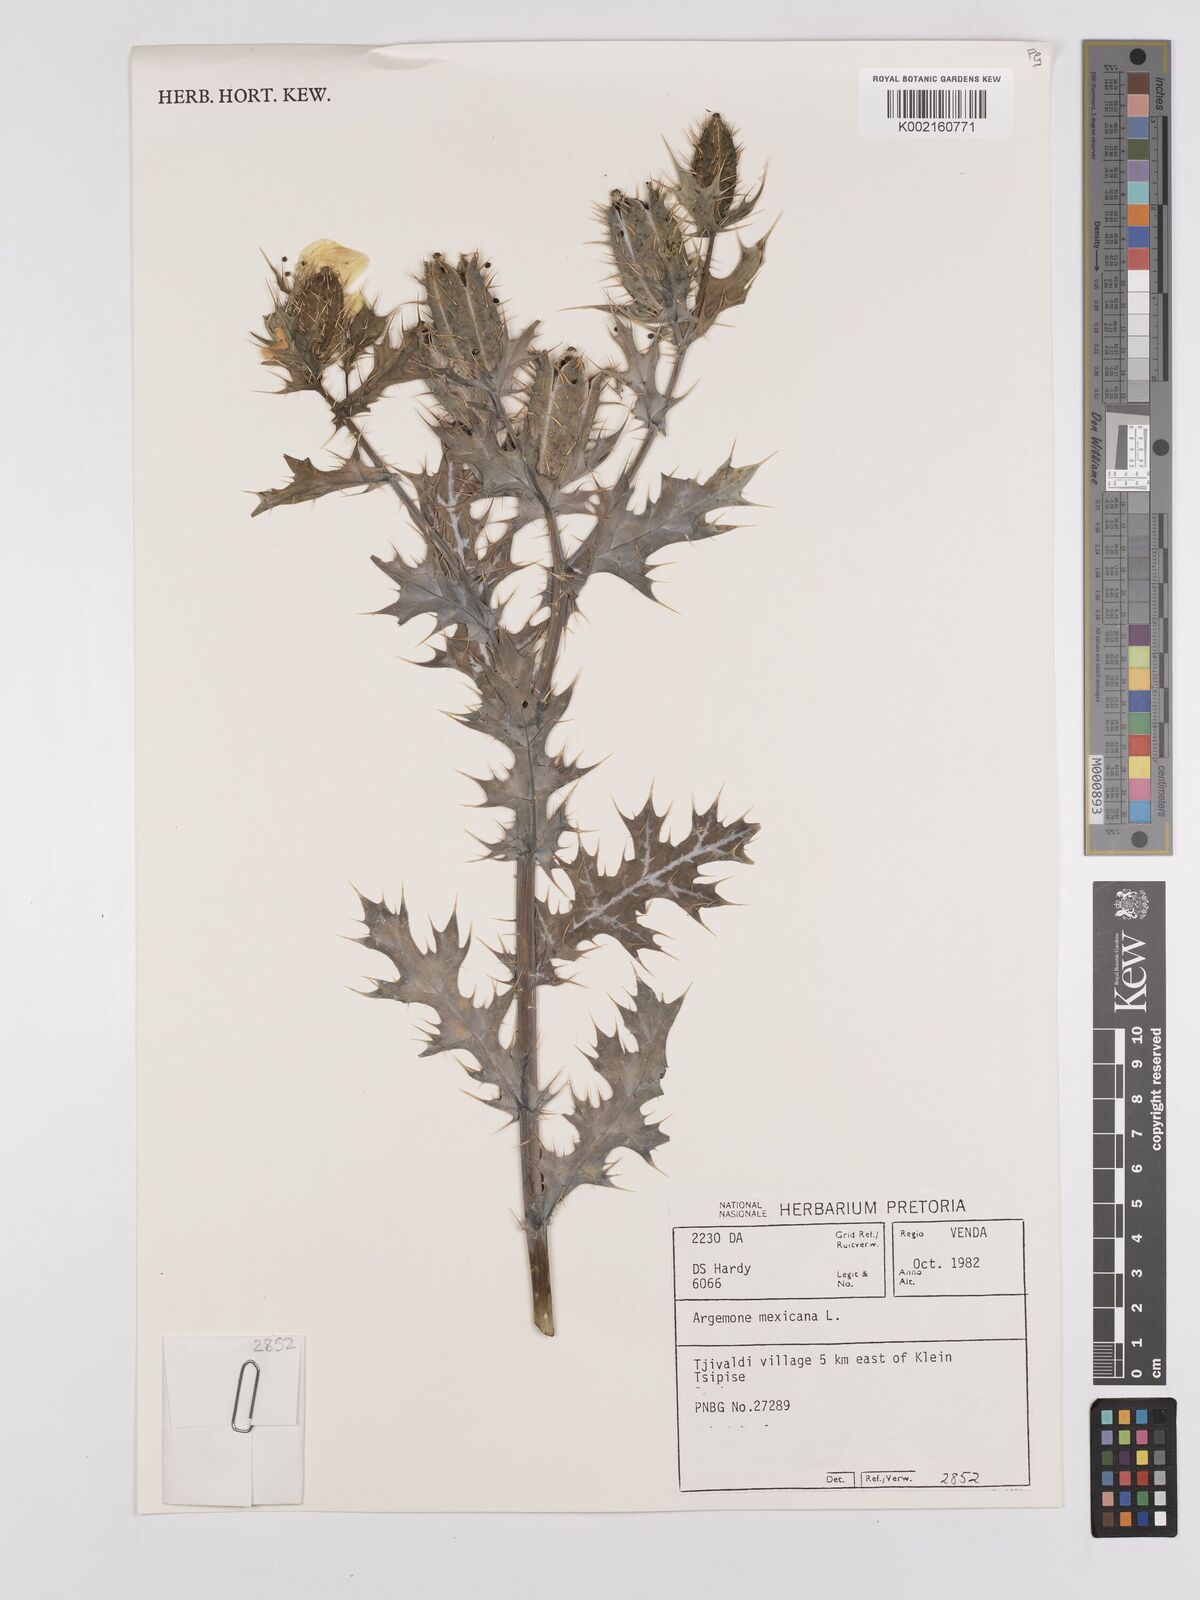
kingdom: Plantae
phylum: Tracheophyta
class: Magnoliopsida
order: Ranunculales
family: Papaveraceae
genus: Argemone
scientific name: Argemone mexicana
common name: Mexican poppy
